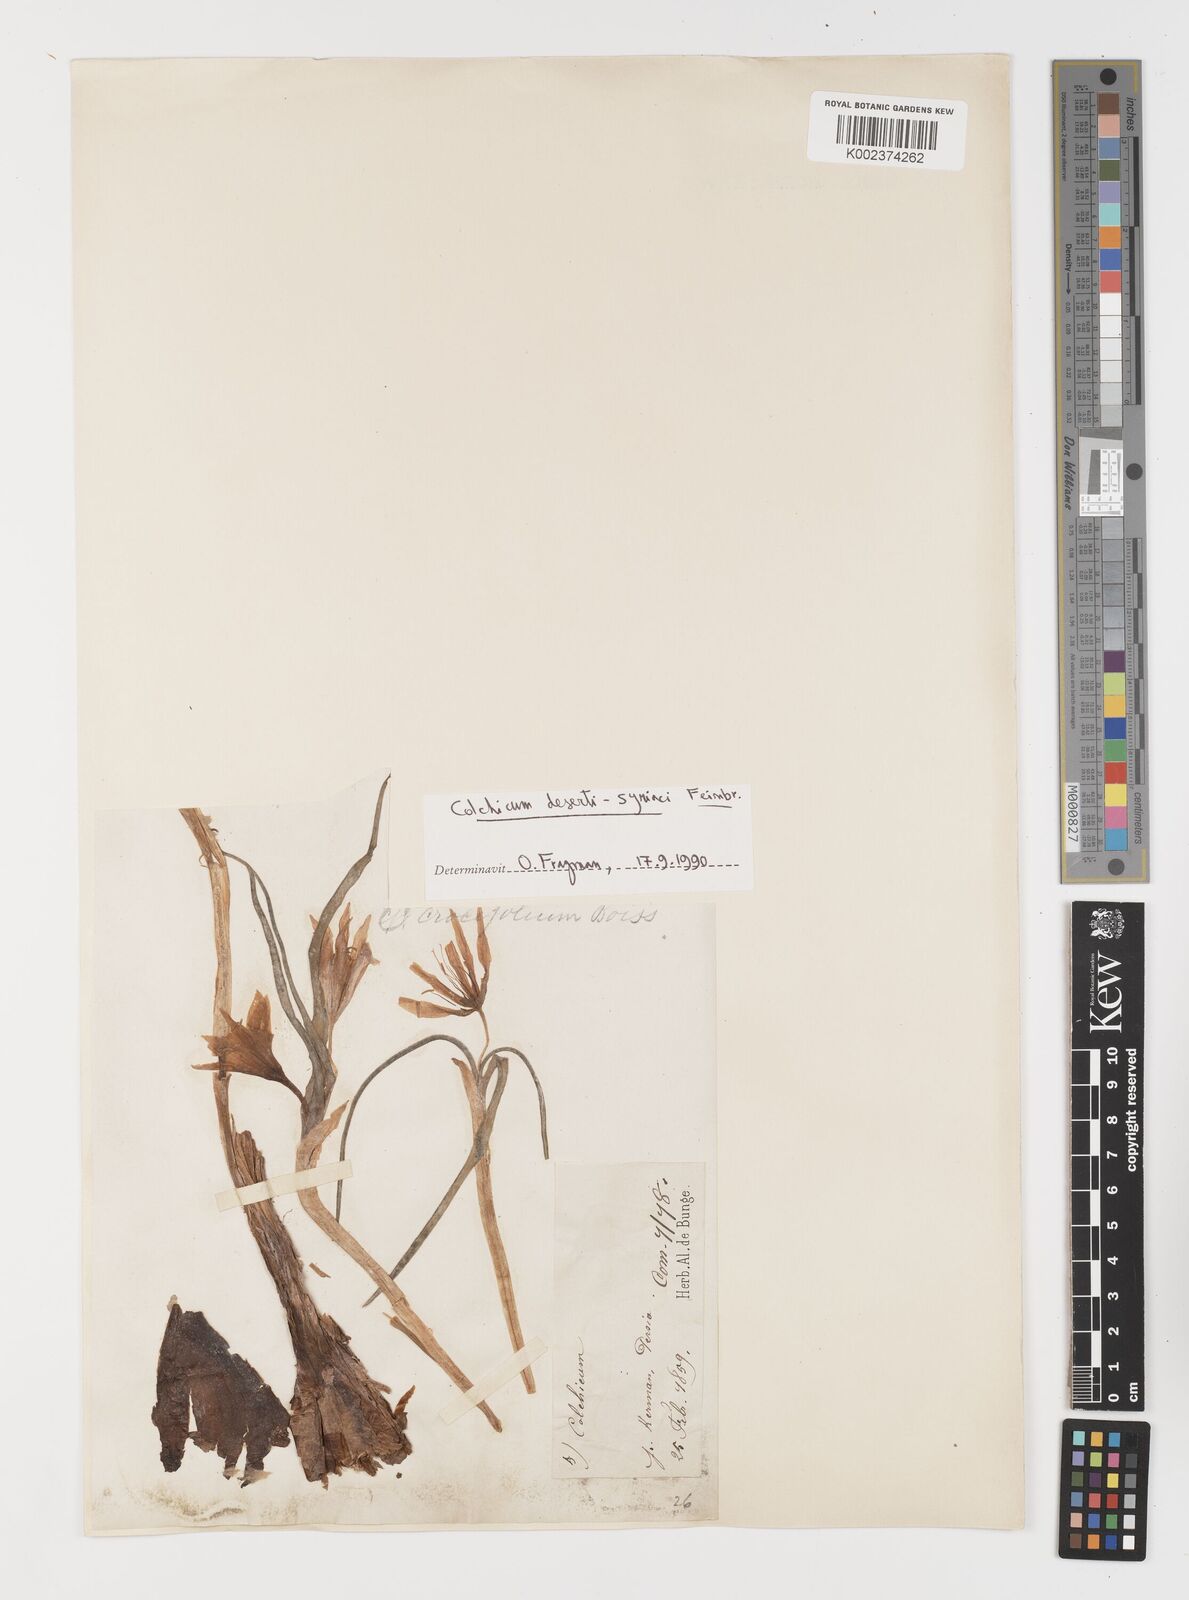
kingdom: Plantae
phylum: Tracheophyta
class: Liliopsida
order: Liliales
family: Colchicaceae
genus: Colchicum
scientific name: Colchicum schimperi
